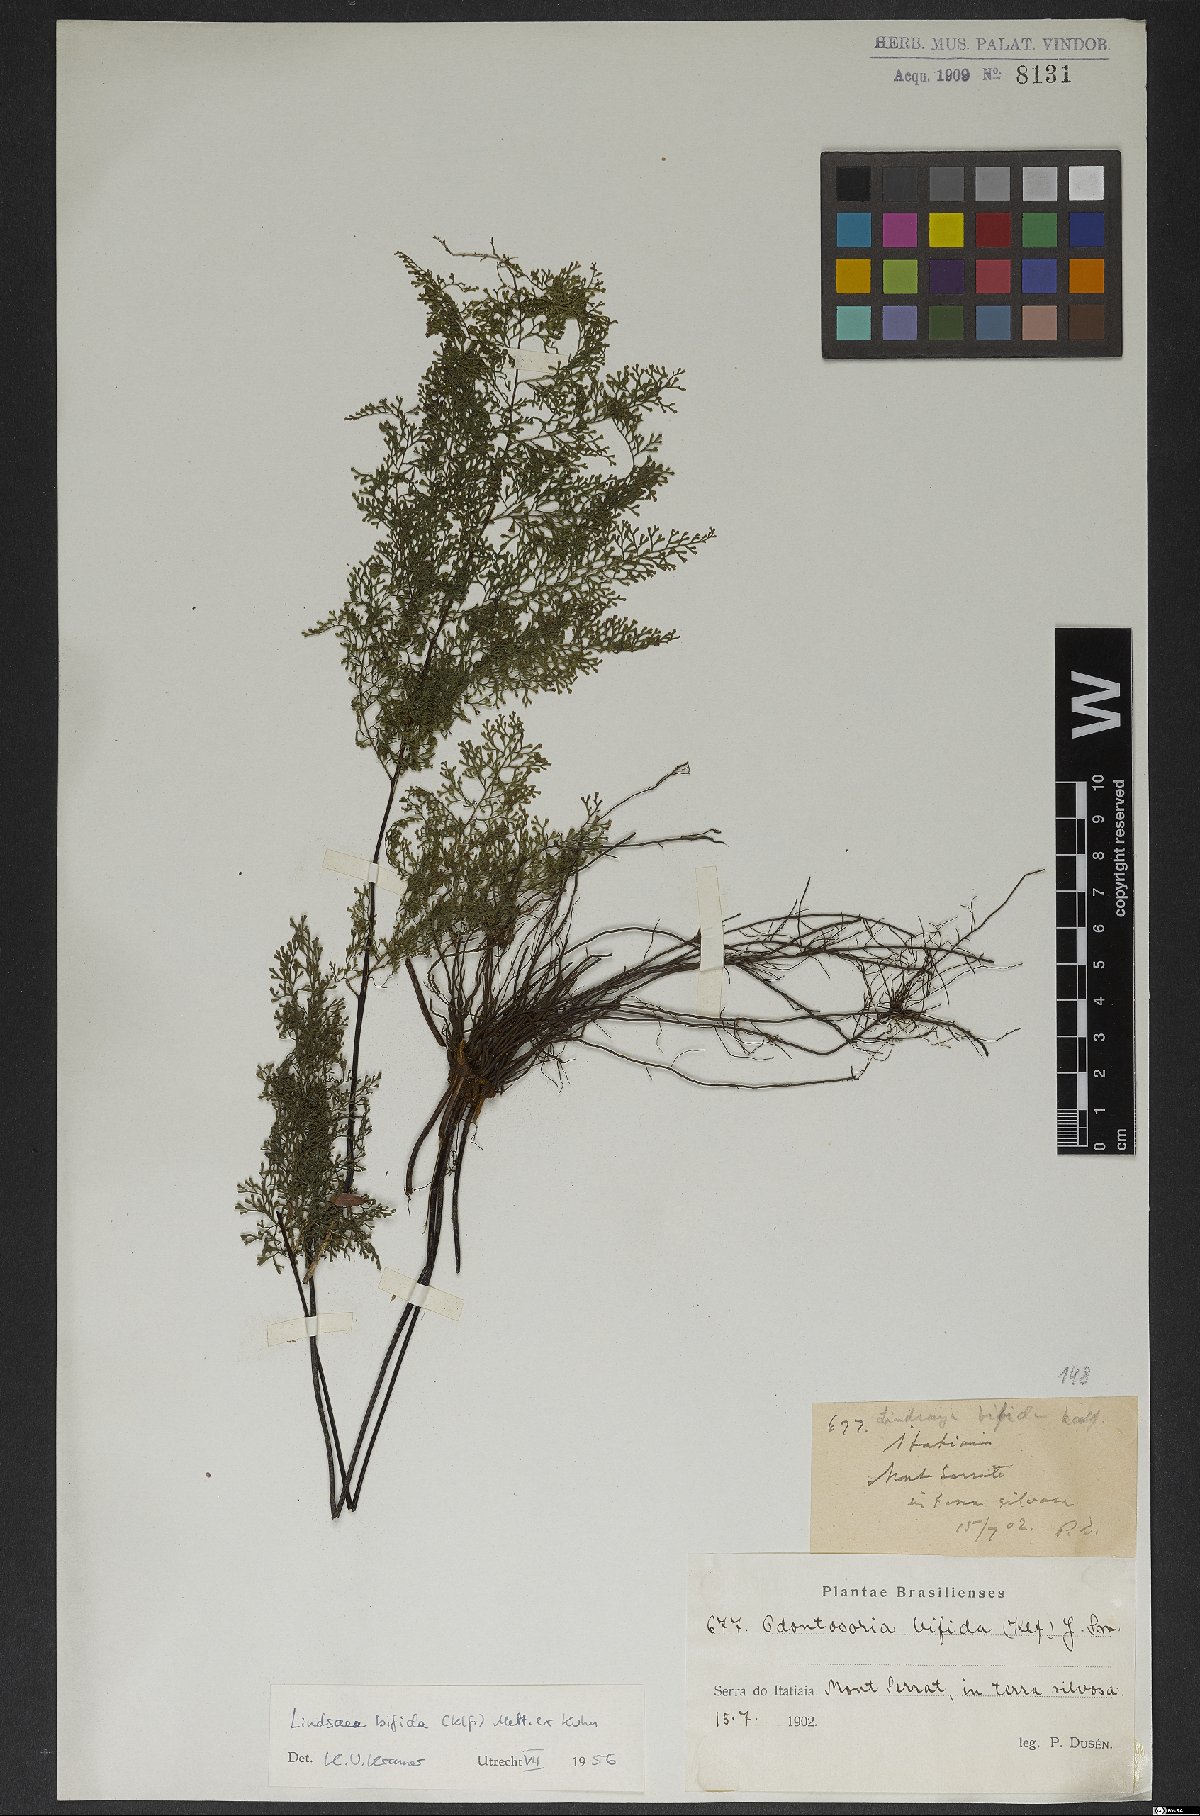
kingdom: Plantae
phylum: Tracheophyta
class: Polypodiopsida
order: Polypodiales
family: Lindsaeaceae
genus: Lindsaea
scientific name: Lindsaea bifida
